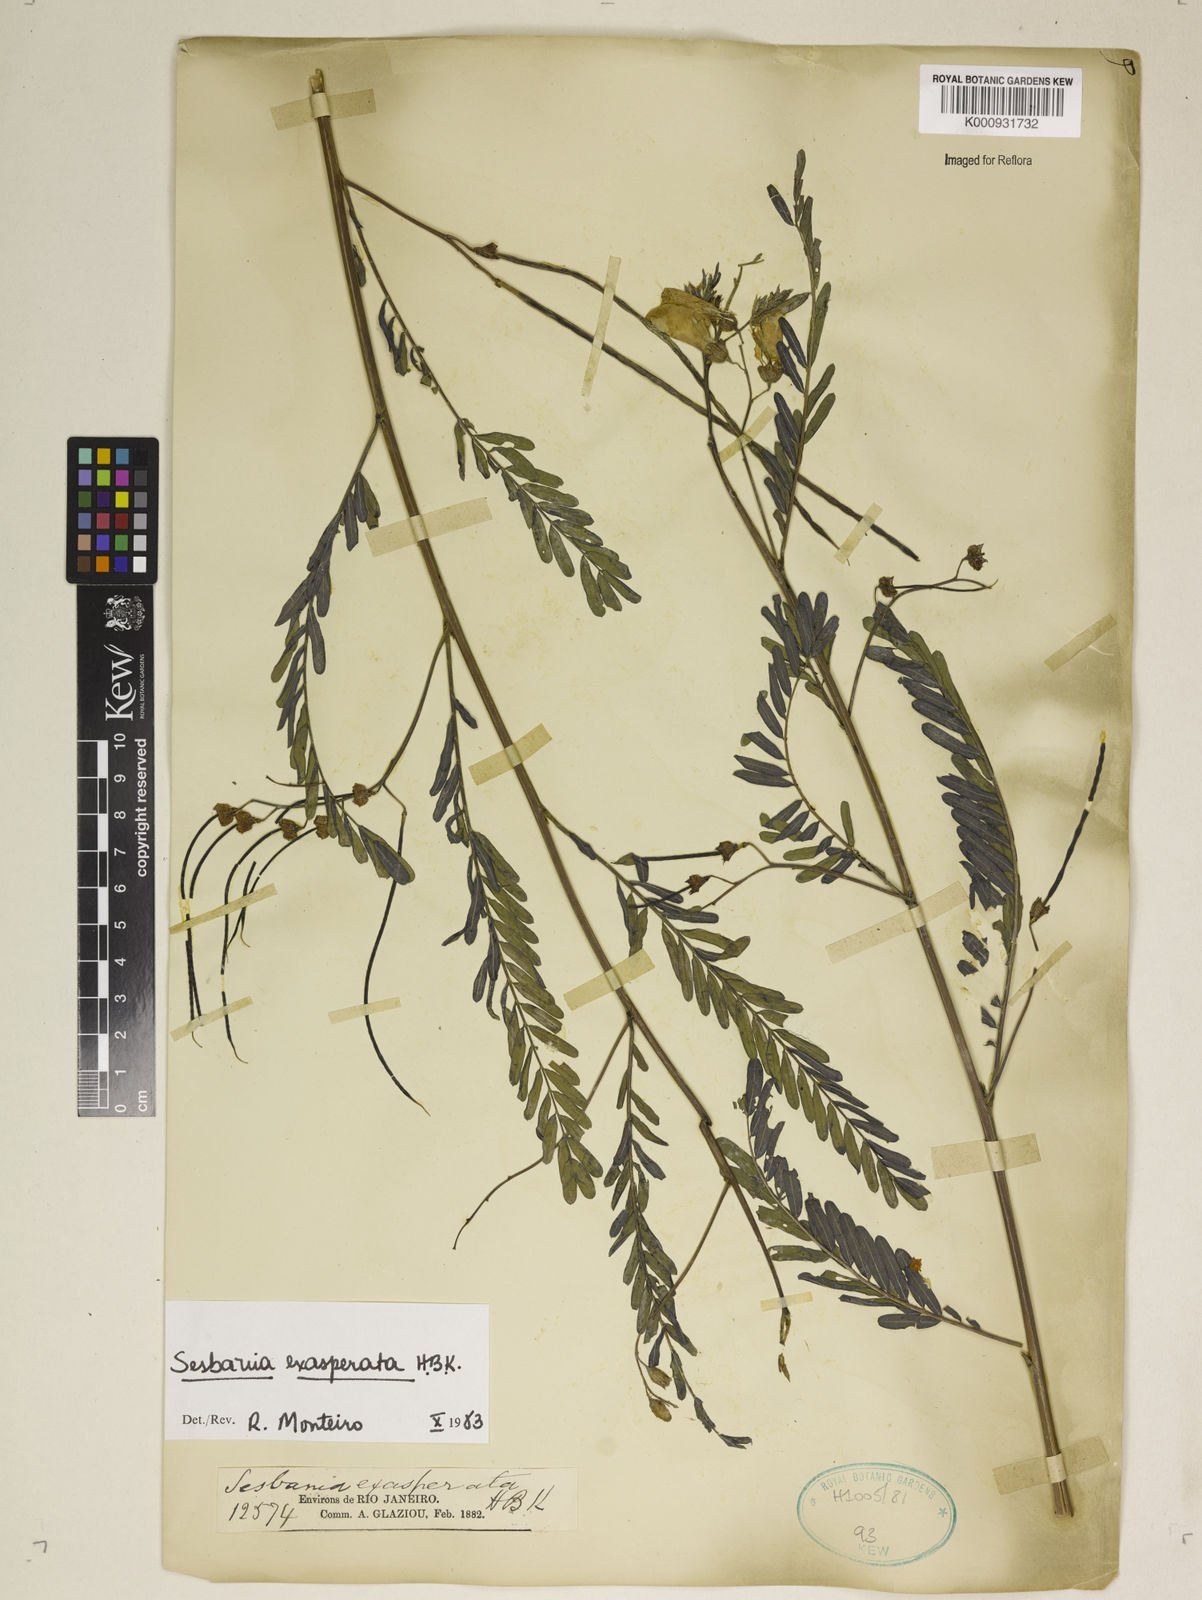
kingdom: Plantae
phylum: Tracheophyta
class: Magnoliopsida
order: Fabales
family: Fabaceae
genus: Sesbania
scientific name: Sesbania exasperata
